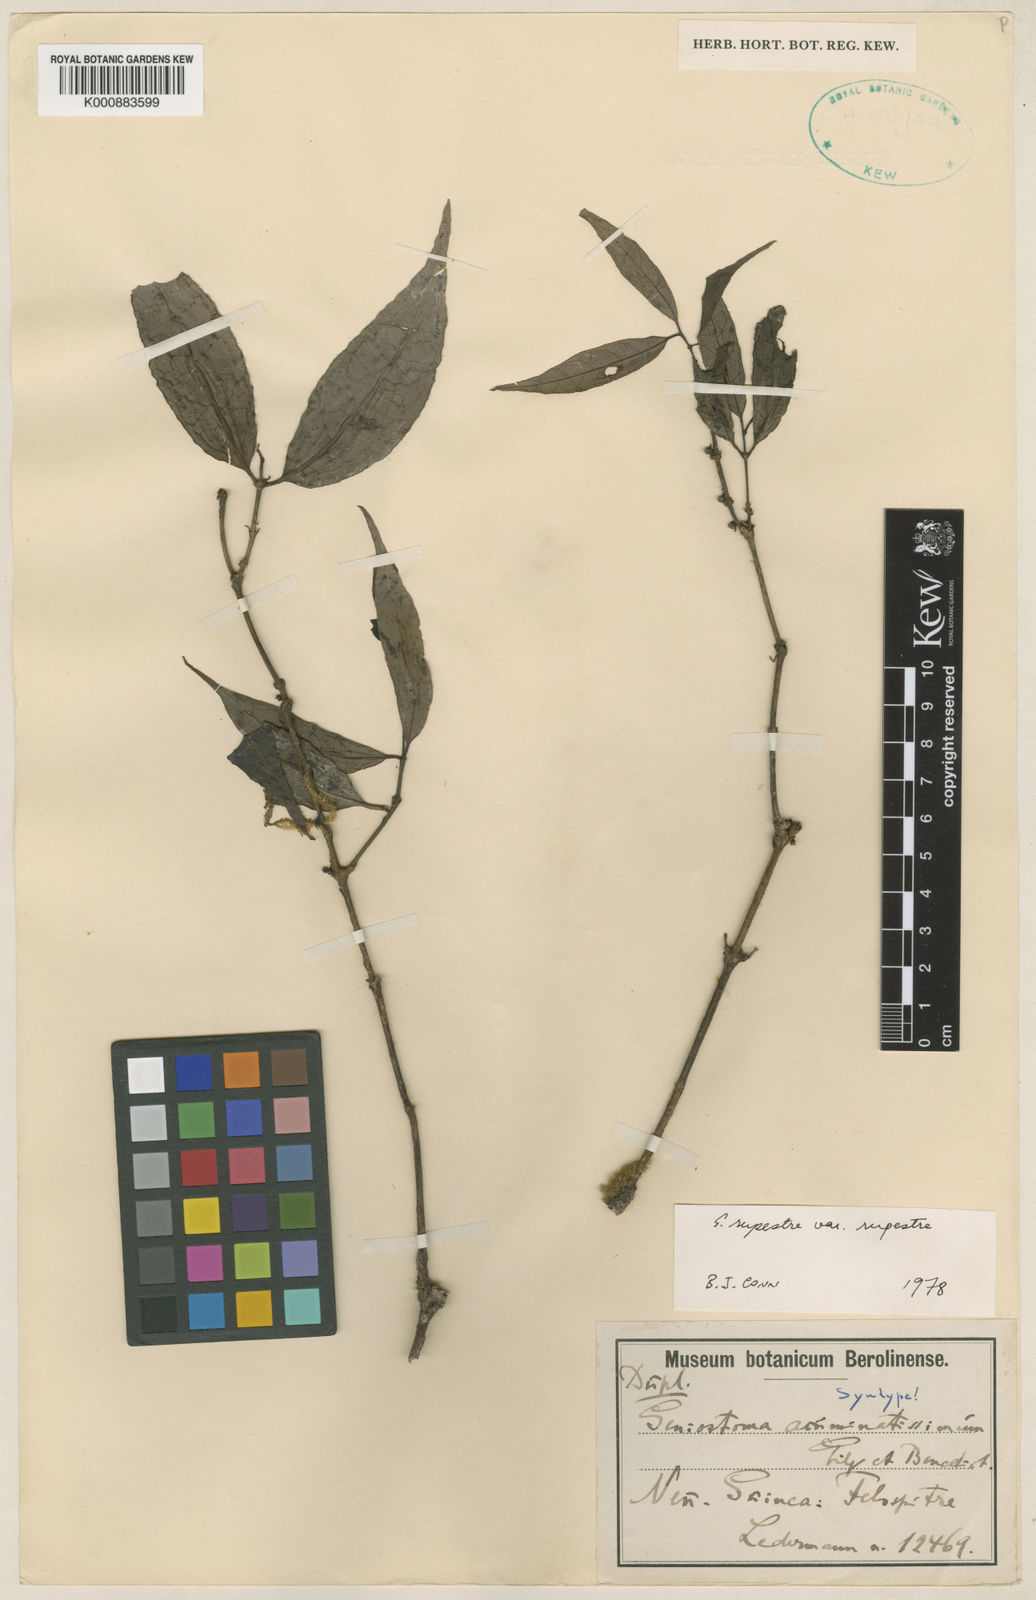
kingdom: Plantae
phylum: Tracheophyta
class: Magnoliopsida
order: Gentianales
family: Loganiaceae
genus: Geniostoma
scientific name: Geniostoma rupestre
